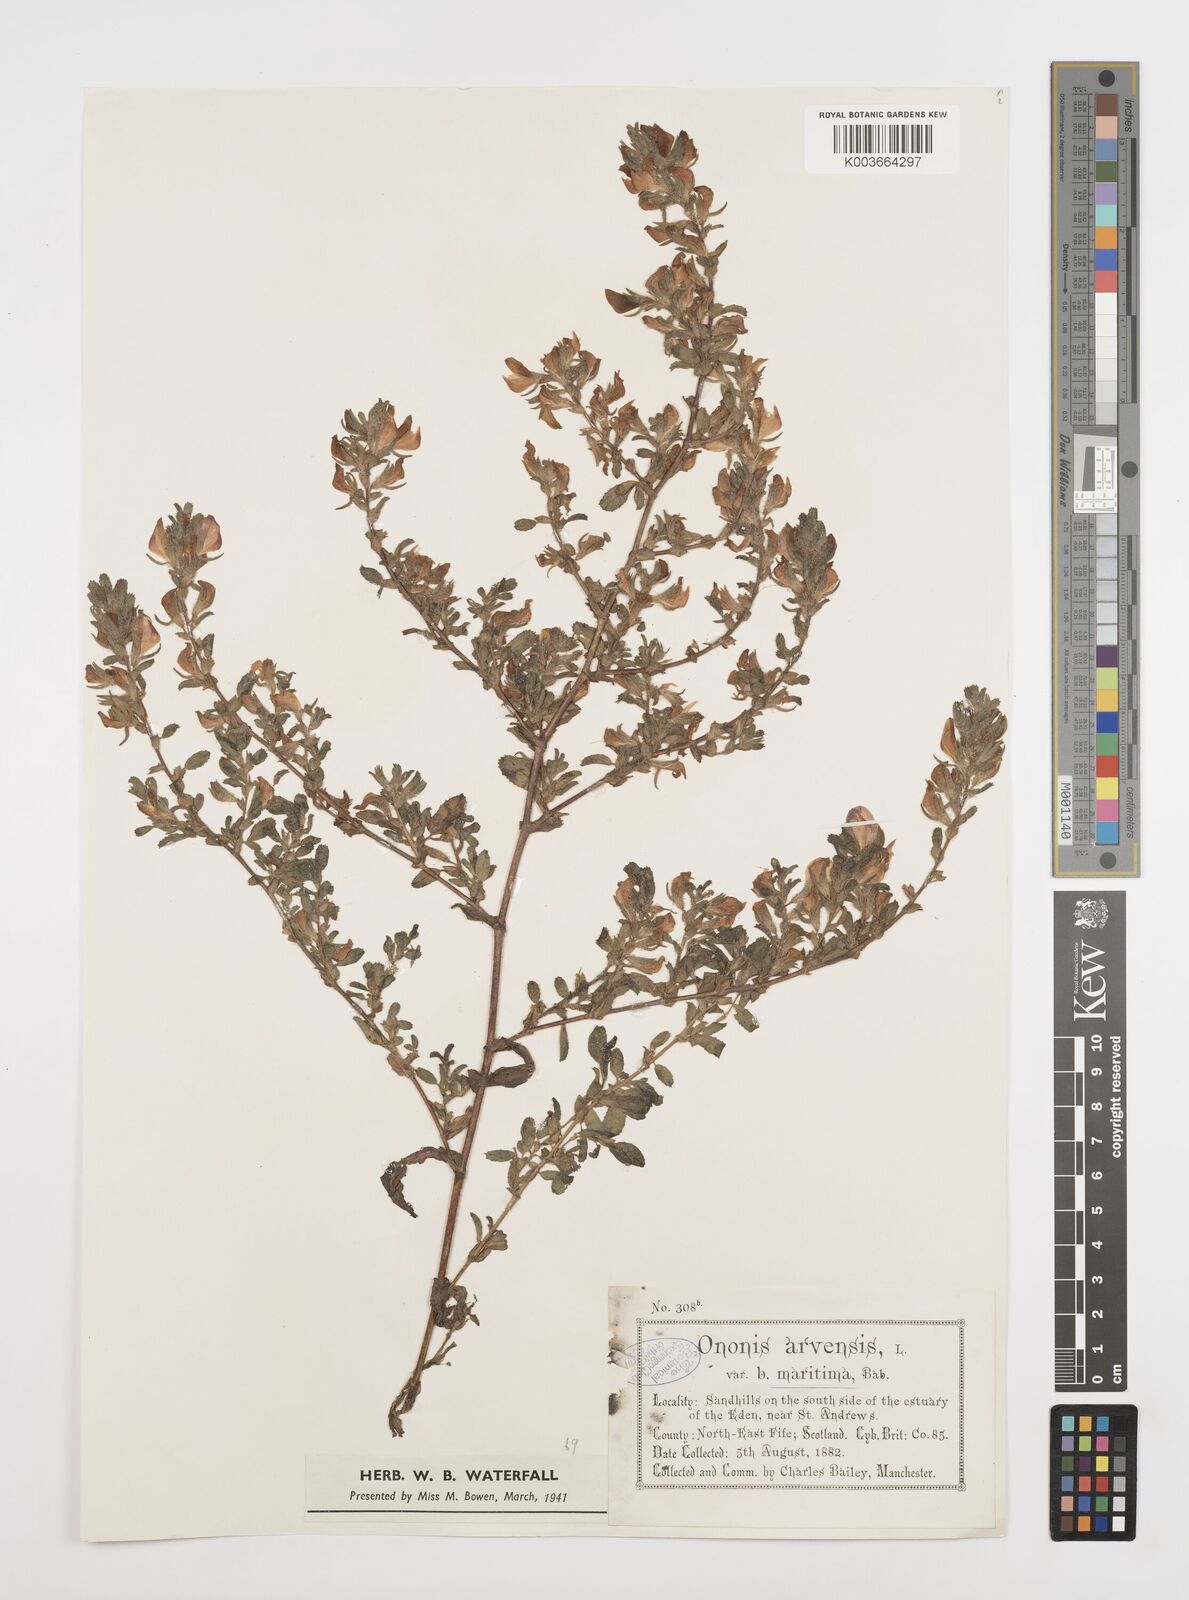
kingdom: Plantae
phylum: Tracheophyta
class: Magnoliopsida
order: Fabales
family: Fabaceae
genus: Ononis
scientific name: Ononis spinosa
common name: Spiny restharrow
